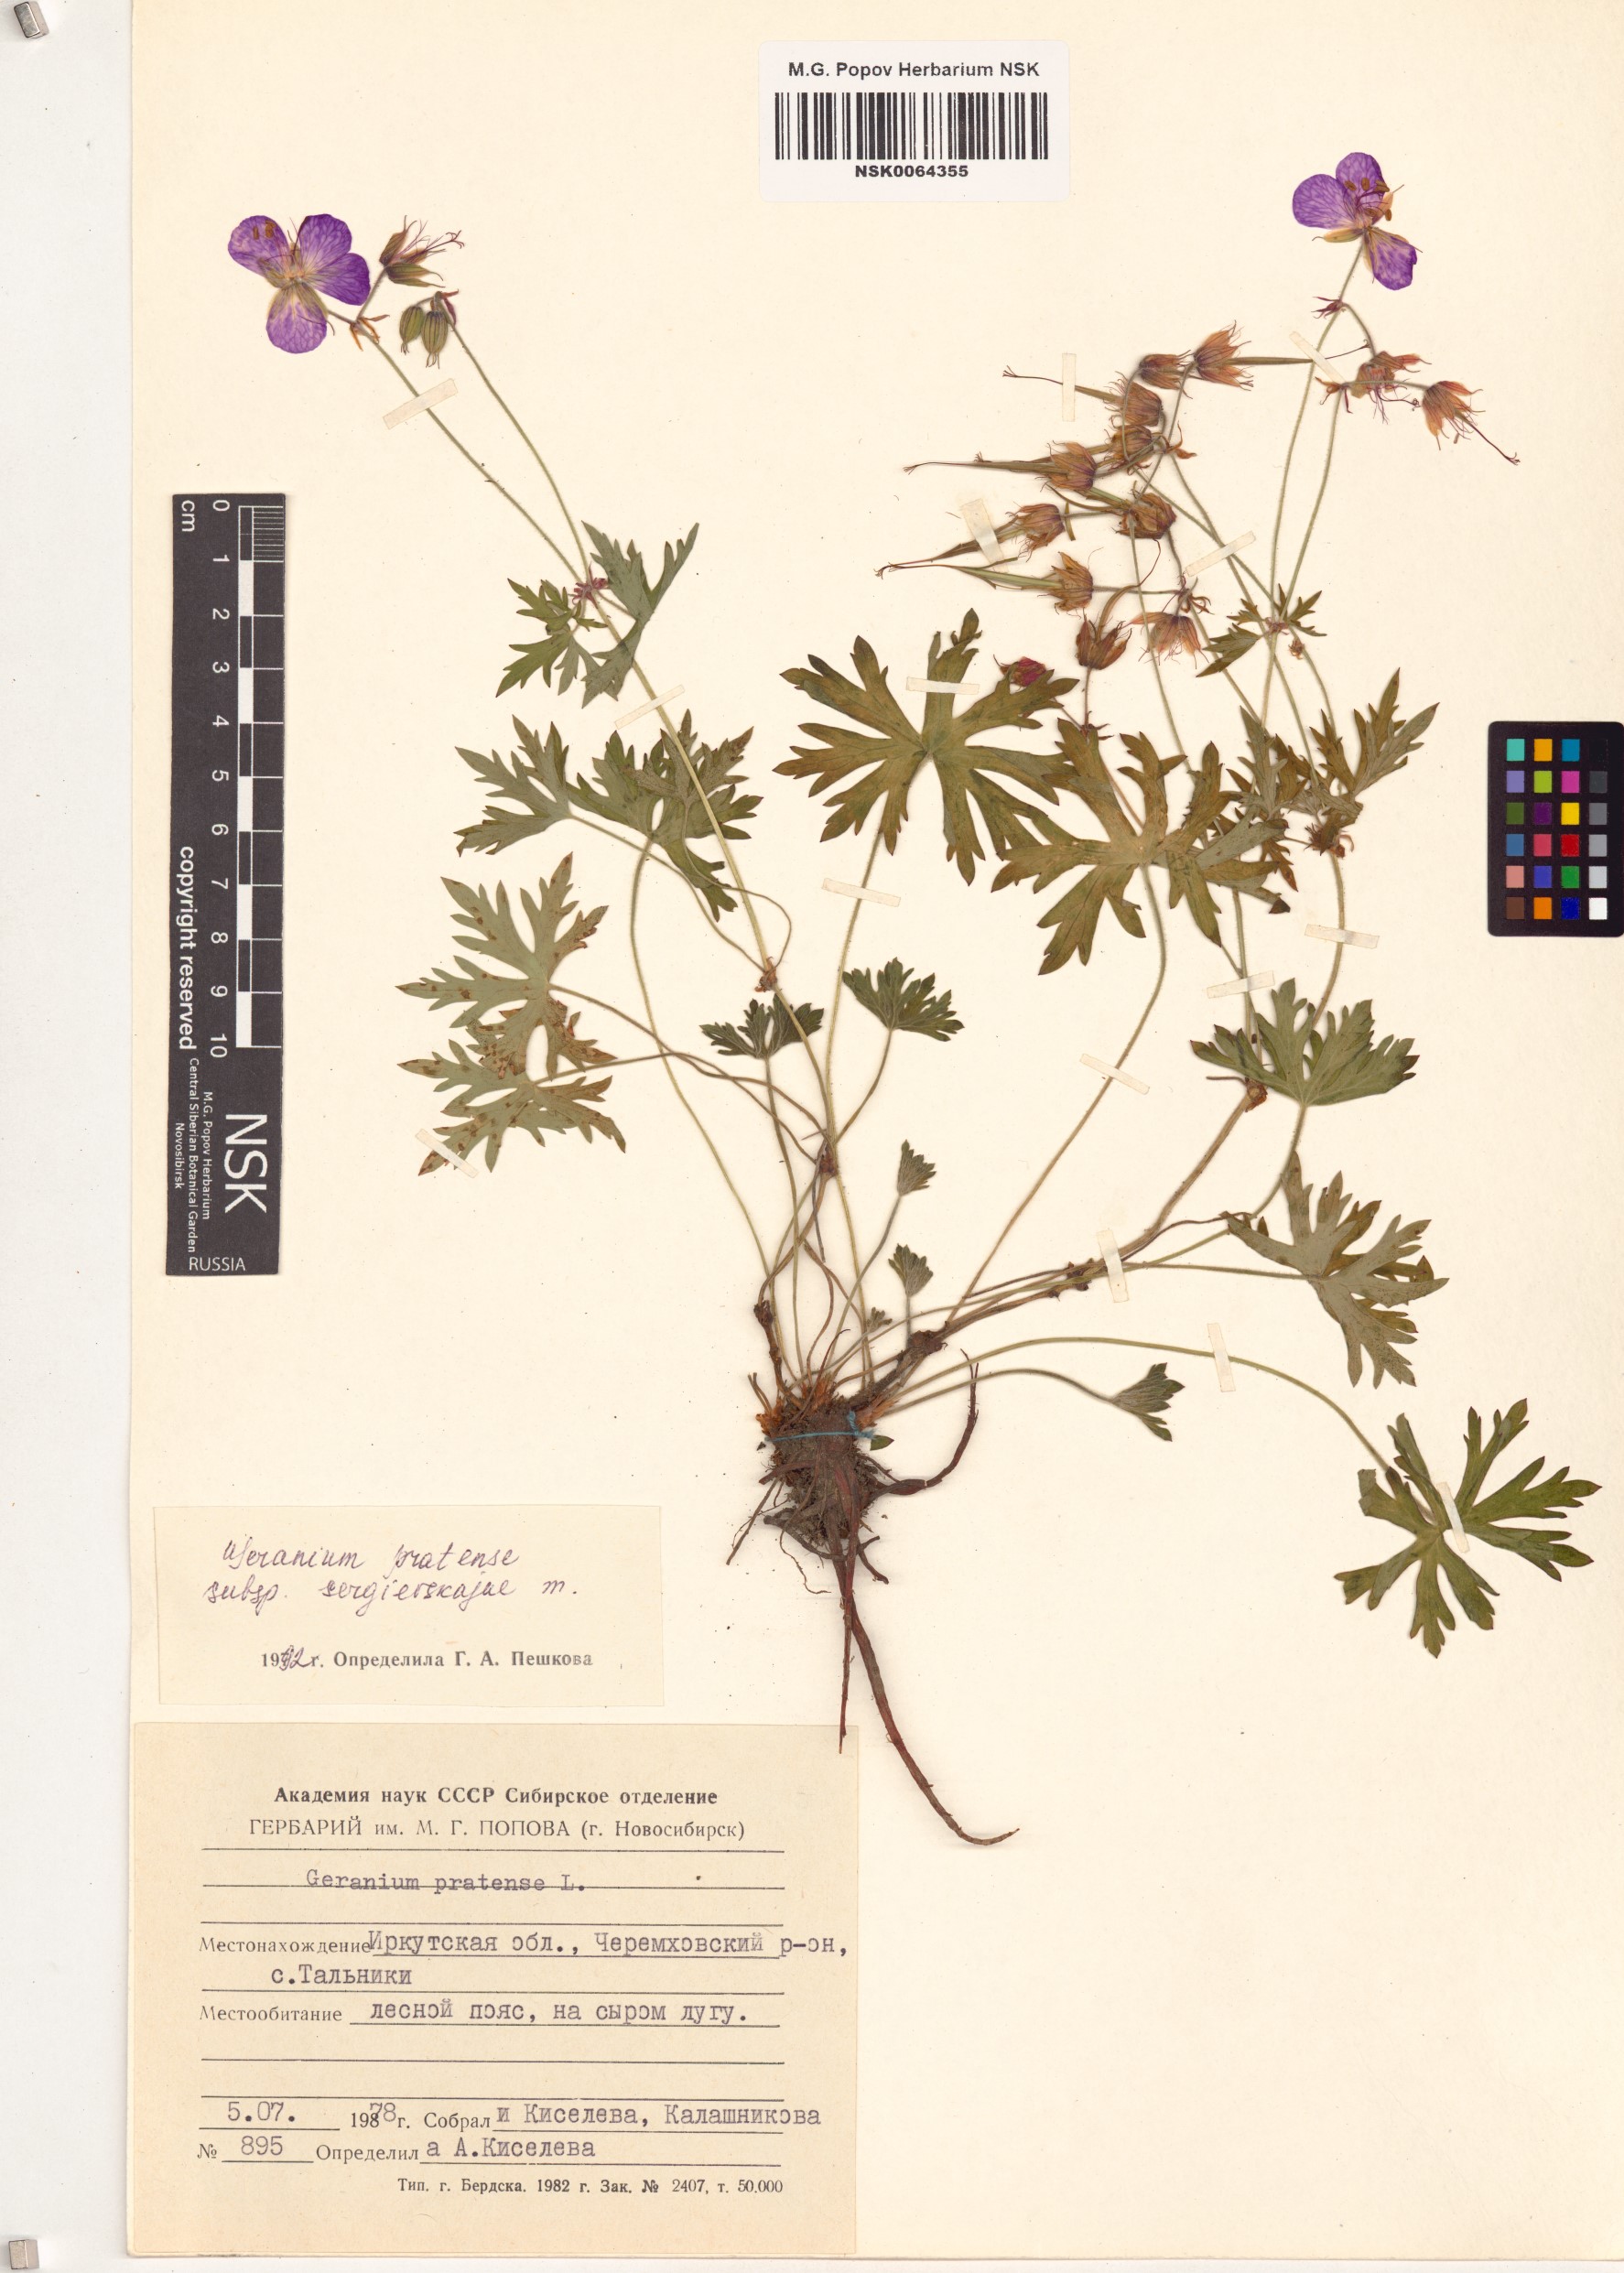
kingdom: Plantae
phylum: Tracheophyta
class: Magnoliopsida
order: Geraniales
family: Geraniaceae
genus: Geranium
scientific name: Geranium pratense
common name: Meadow crane's-bill
